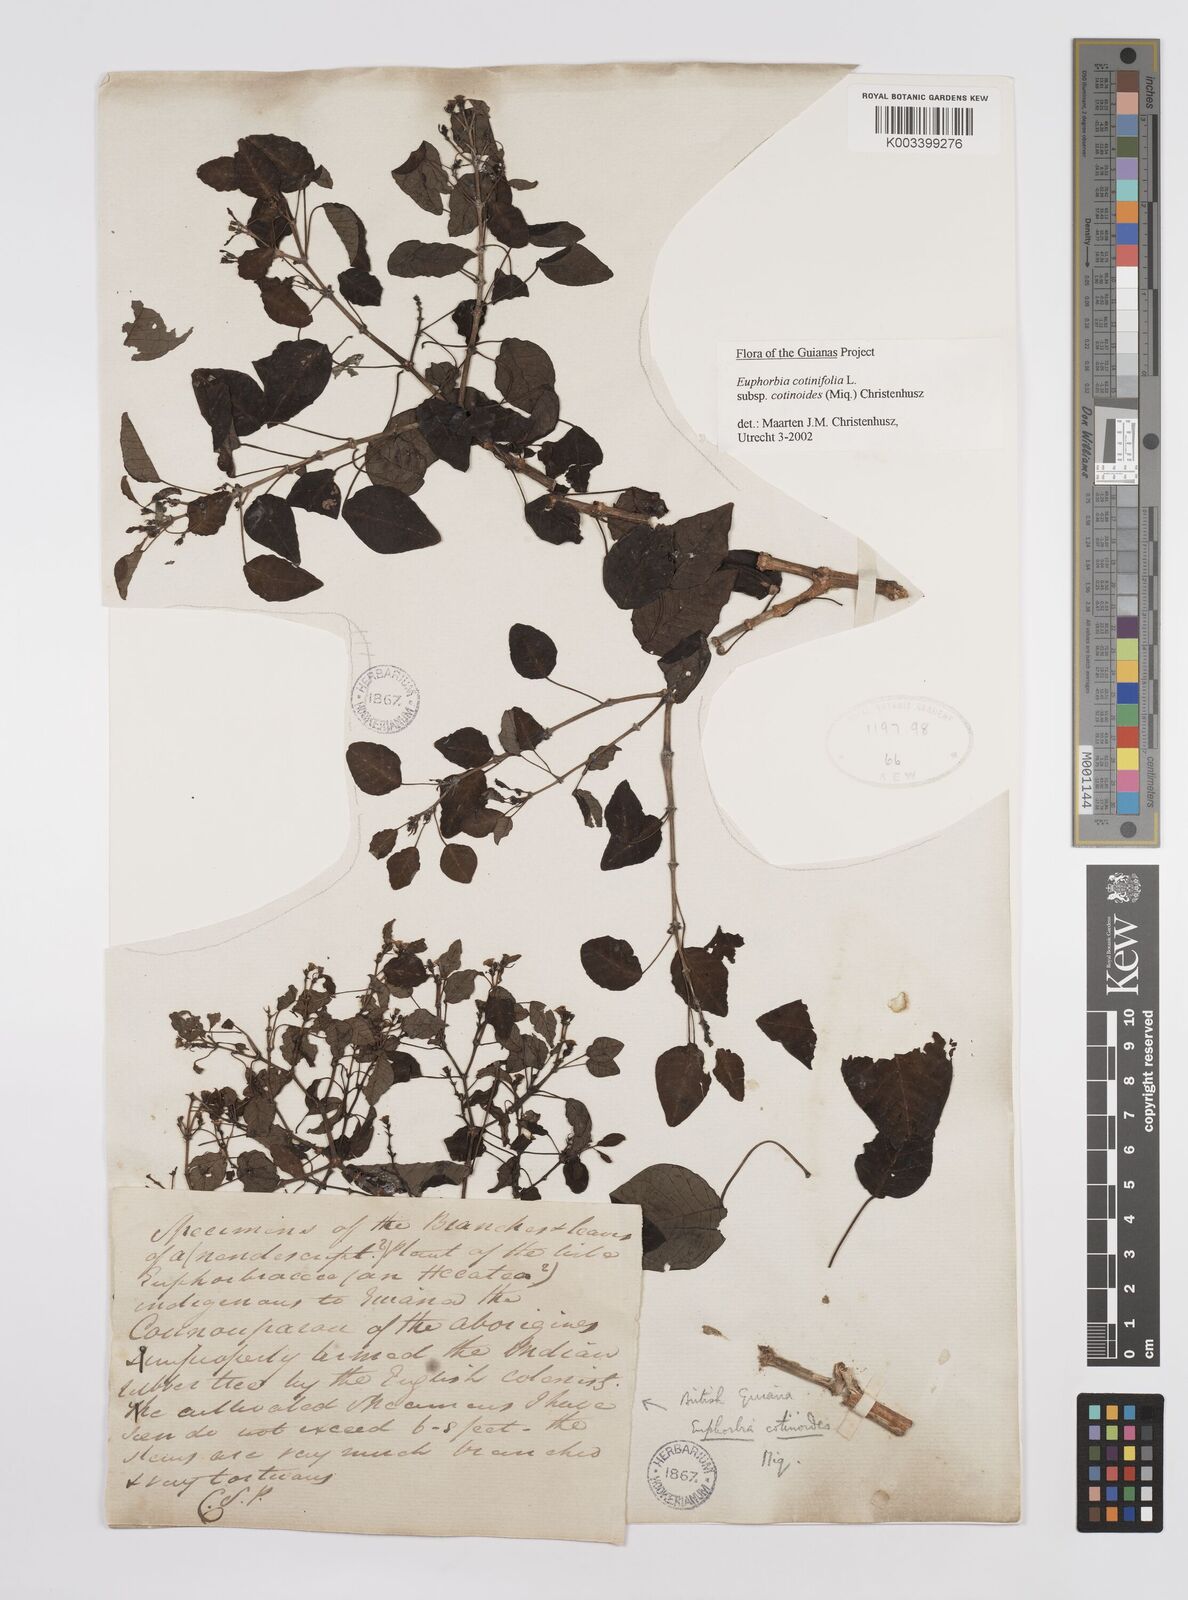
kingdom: Plantae
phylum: Tracheophyta
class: Magnoliopsida
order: Malpighiales
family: Euphorbiaceae
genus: Euphorbia
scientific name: Euphorbia cotinifolia
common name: Tropical smokebush
